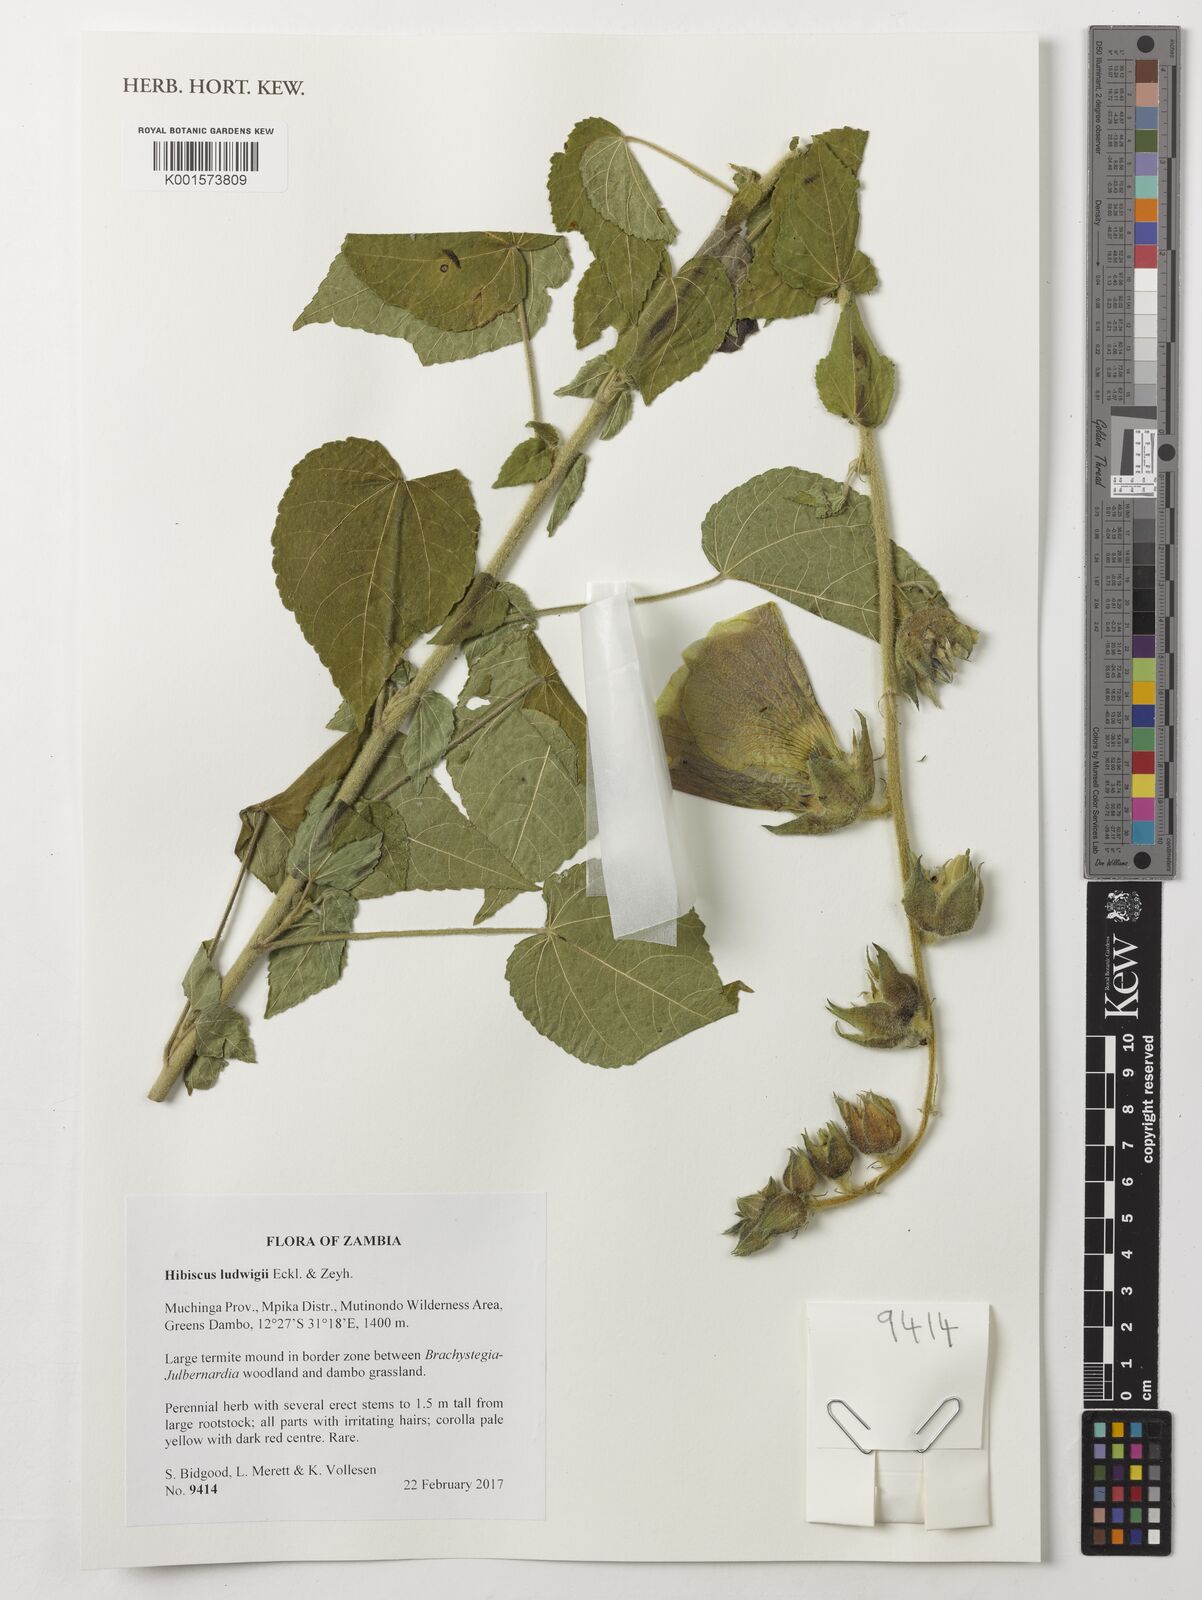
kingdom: Plantae
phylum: Tracheophyta
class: Magnoliopsida
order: Malvales
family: Malvaceae
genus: Hibiscus
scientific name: Hibiscus ludwigii
